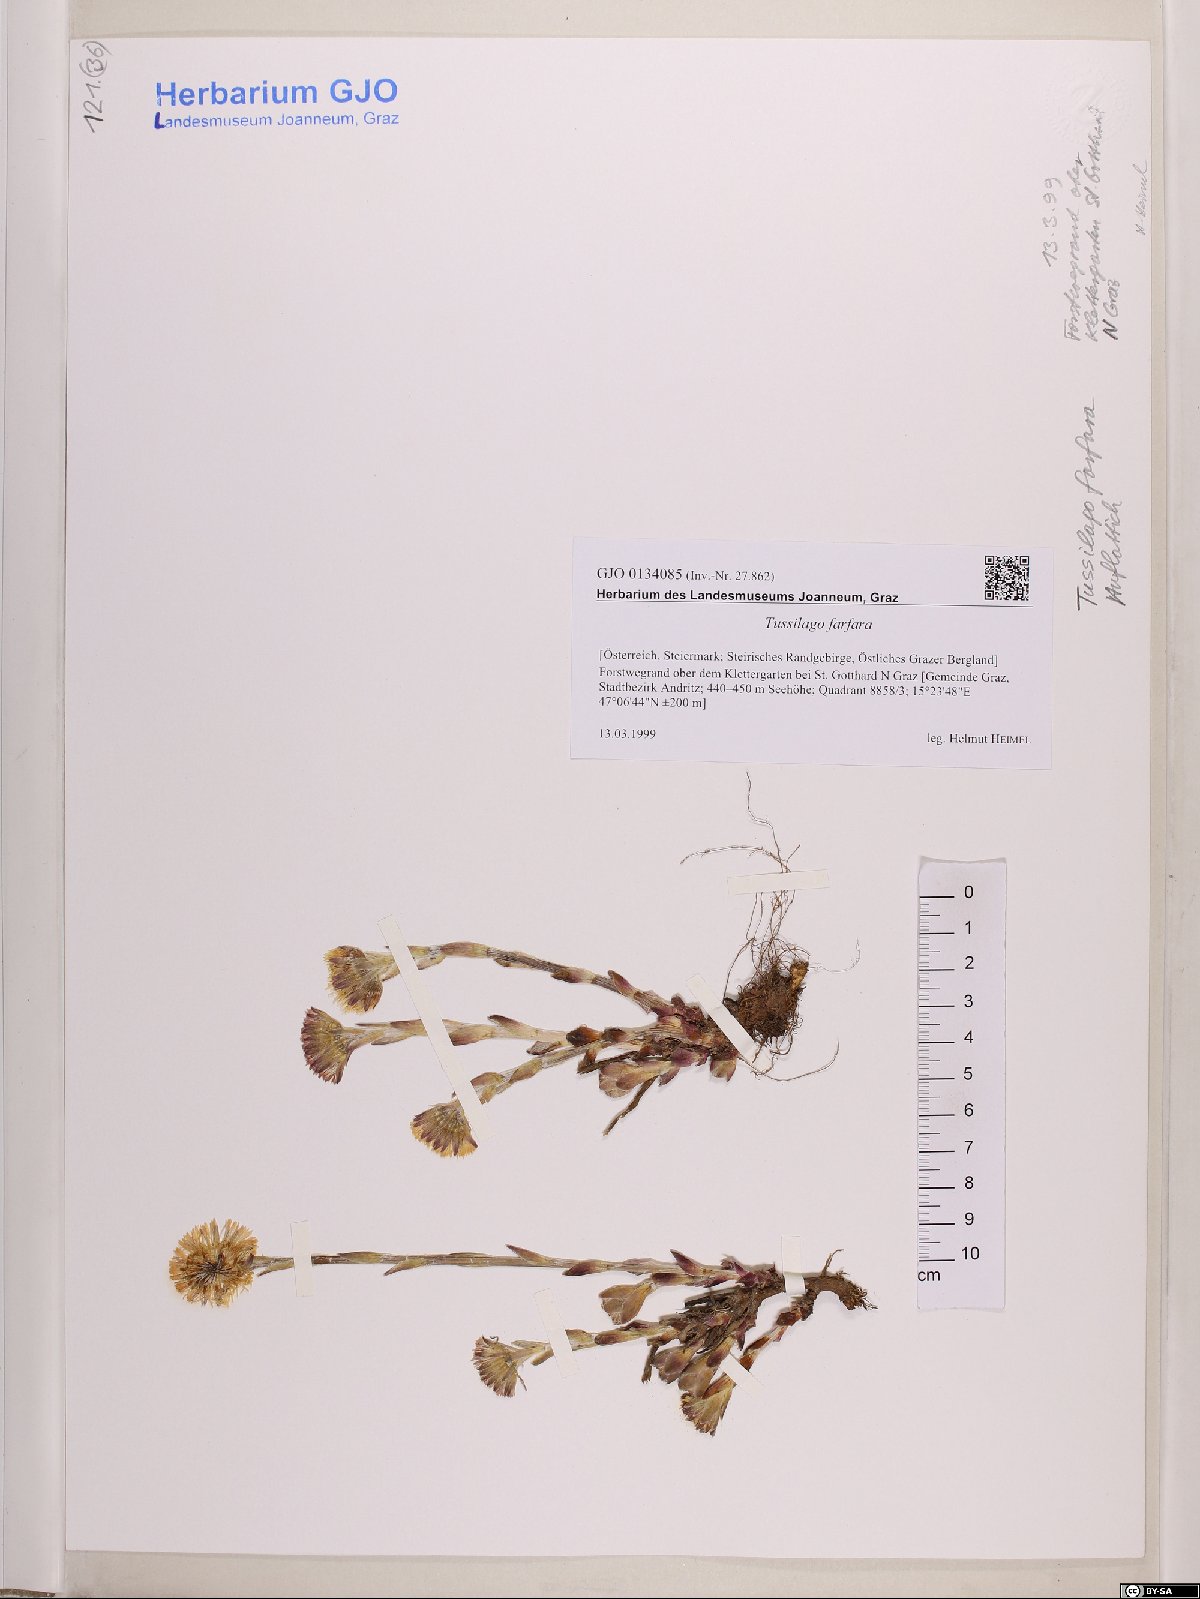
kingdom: Plantae
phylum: Tracheophyta
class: Magnoliopsida
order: Asterales
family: Asteraceae
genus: Tussilago
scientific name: Tussilago farfara
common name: Coltsfoot
